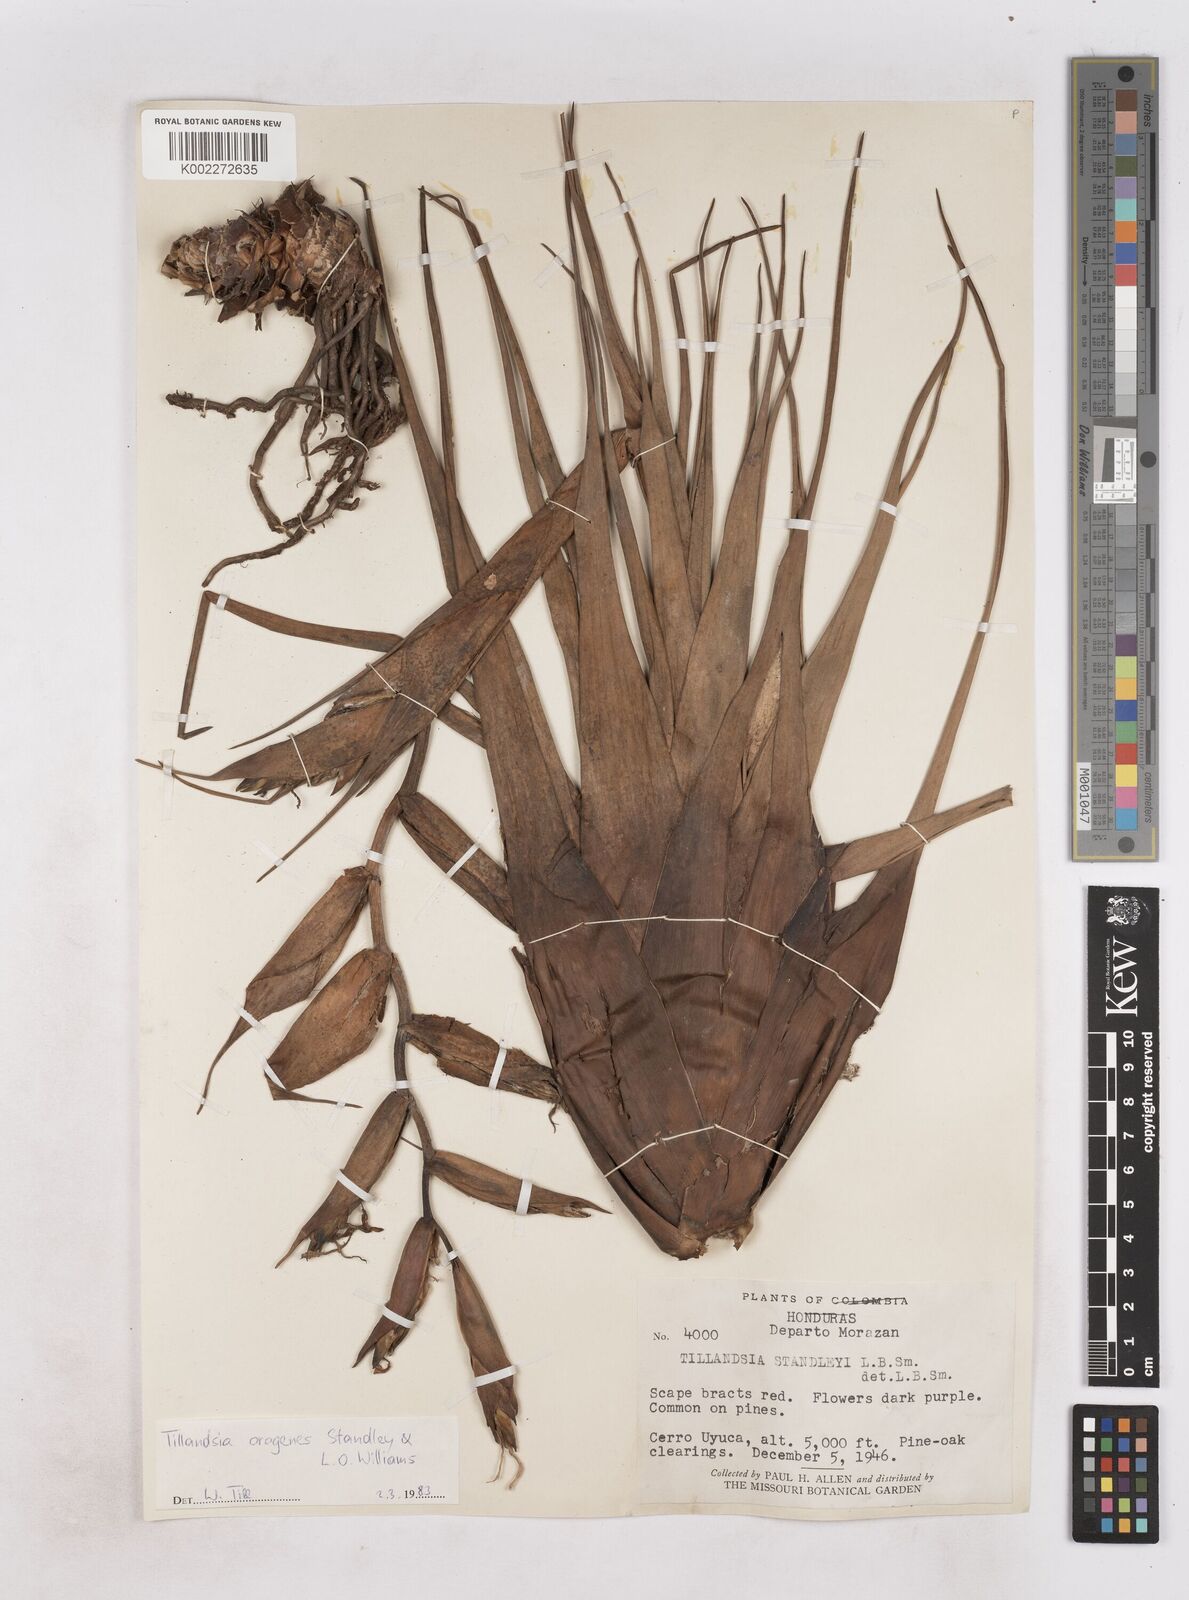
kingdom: Plantae
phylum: Tracheophyta
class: Liliopsida
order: Poales
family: Bromeliaceae
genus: Tillandsia
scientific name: Tillandsia orogenes
